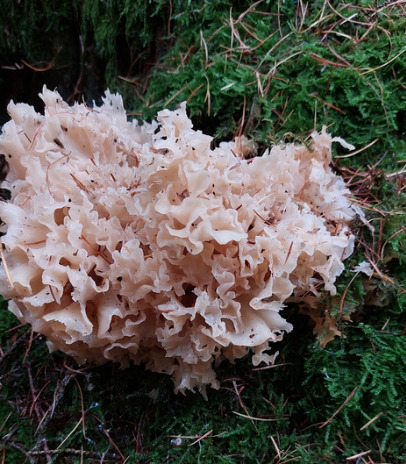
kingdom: Fungi
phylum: Basidiomycota
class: Agaricomycetes
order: Polyporales
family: Sparassidaceae
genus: Sparassis
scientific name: Sparassis crispa
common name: Kruset blomkålssvamp
